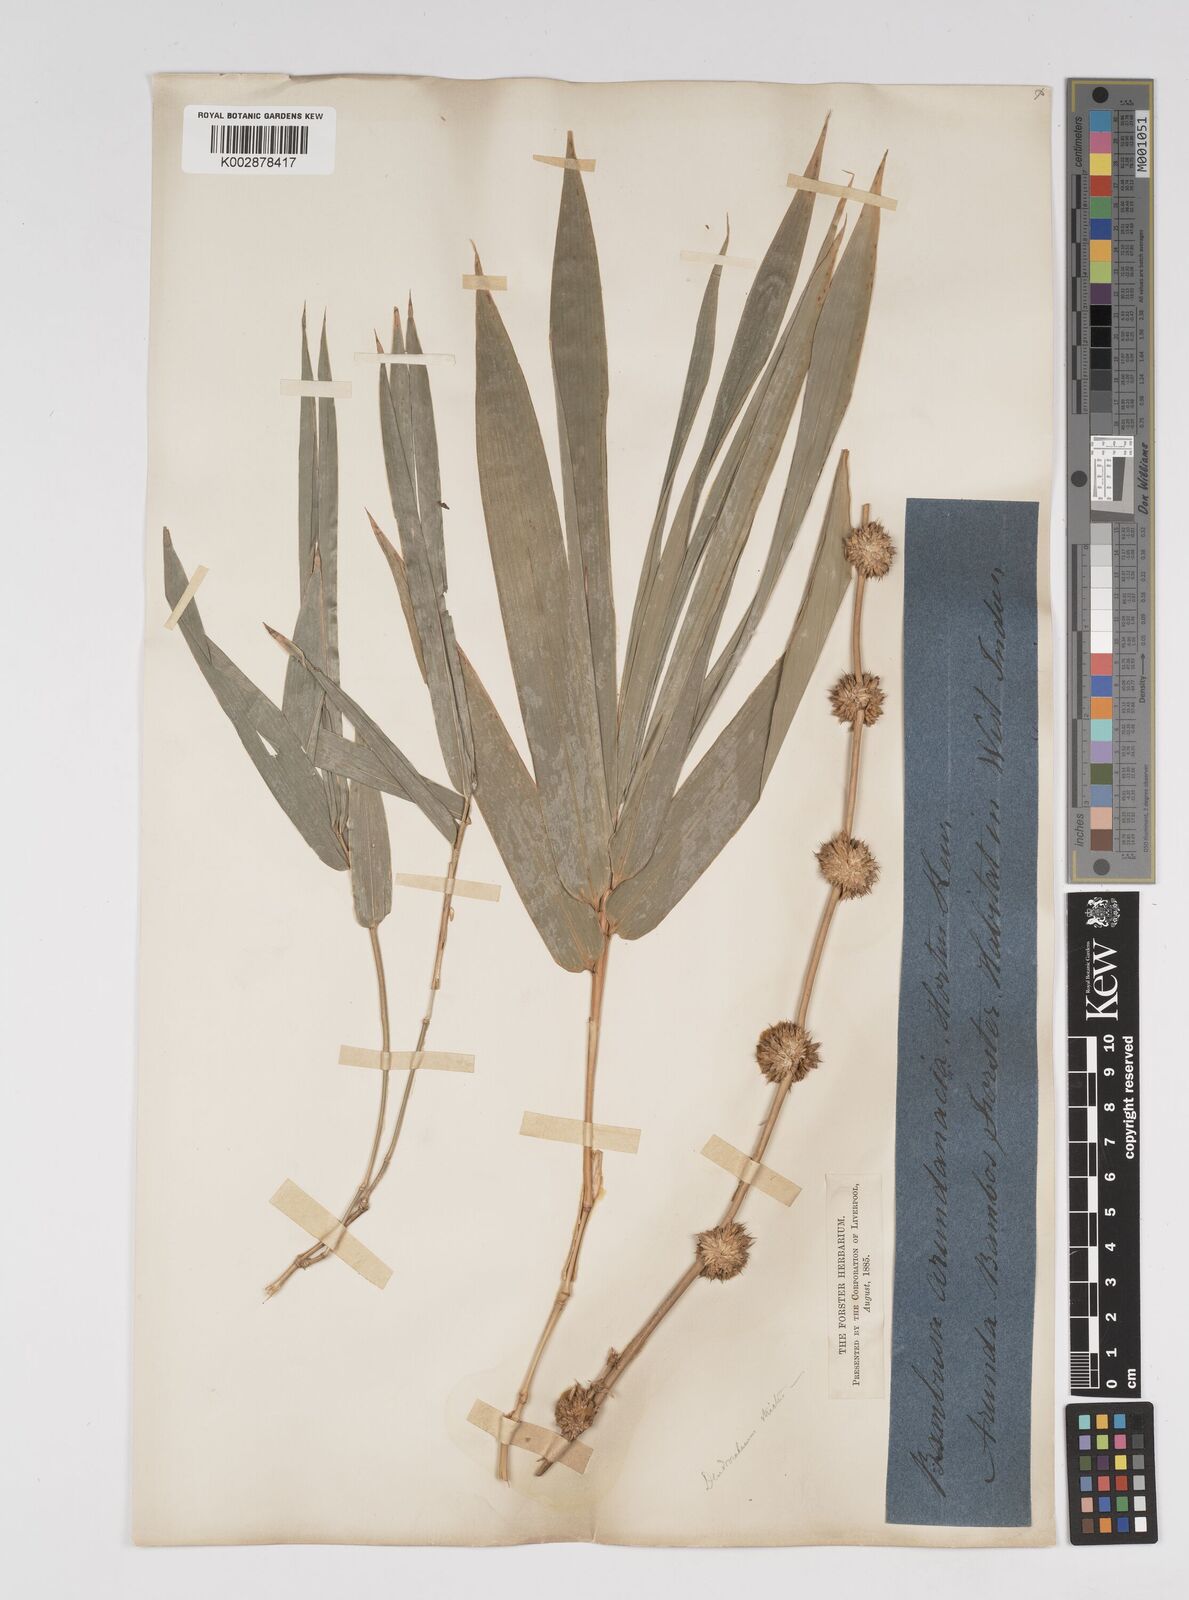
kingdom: Plantae
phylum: Tracheophyta
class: Liliopsida
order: Poales
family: Poaceae
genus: Dendrocalamus
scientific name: Dendrocalamus strictus
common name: Male bamboo
